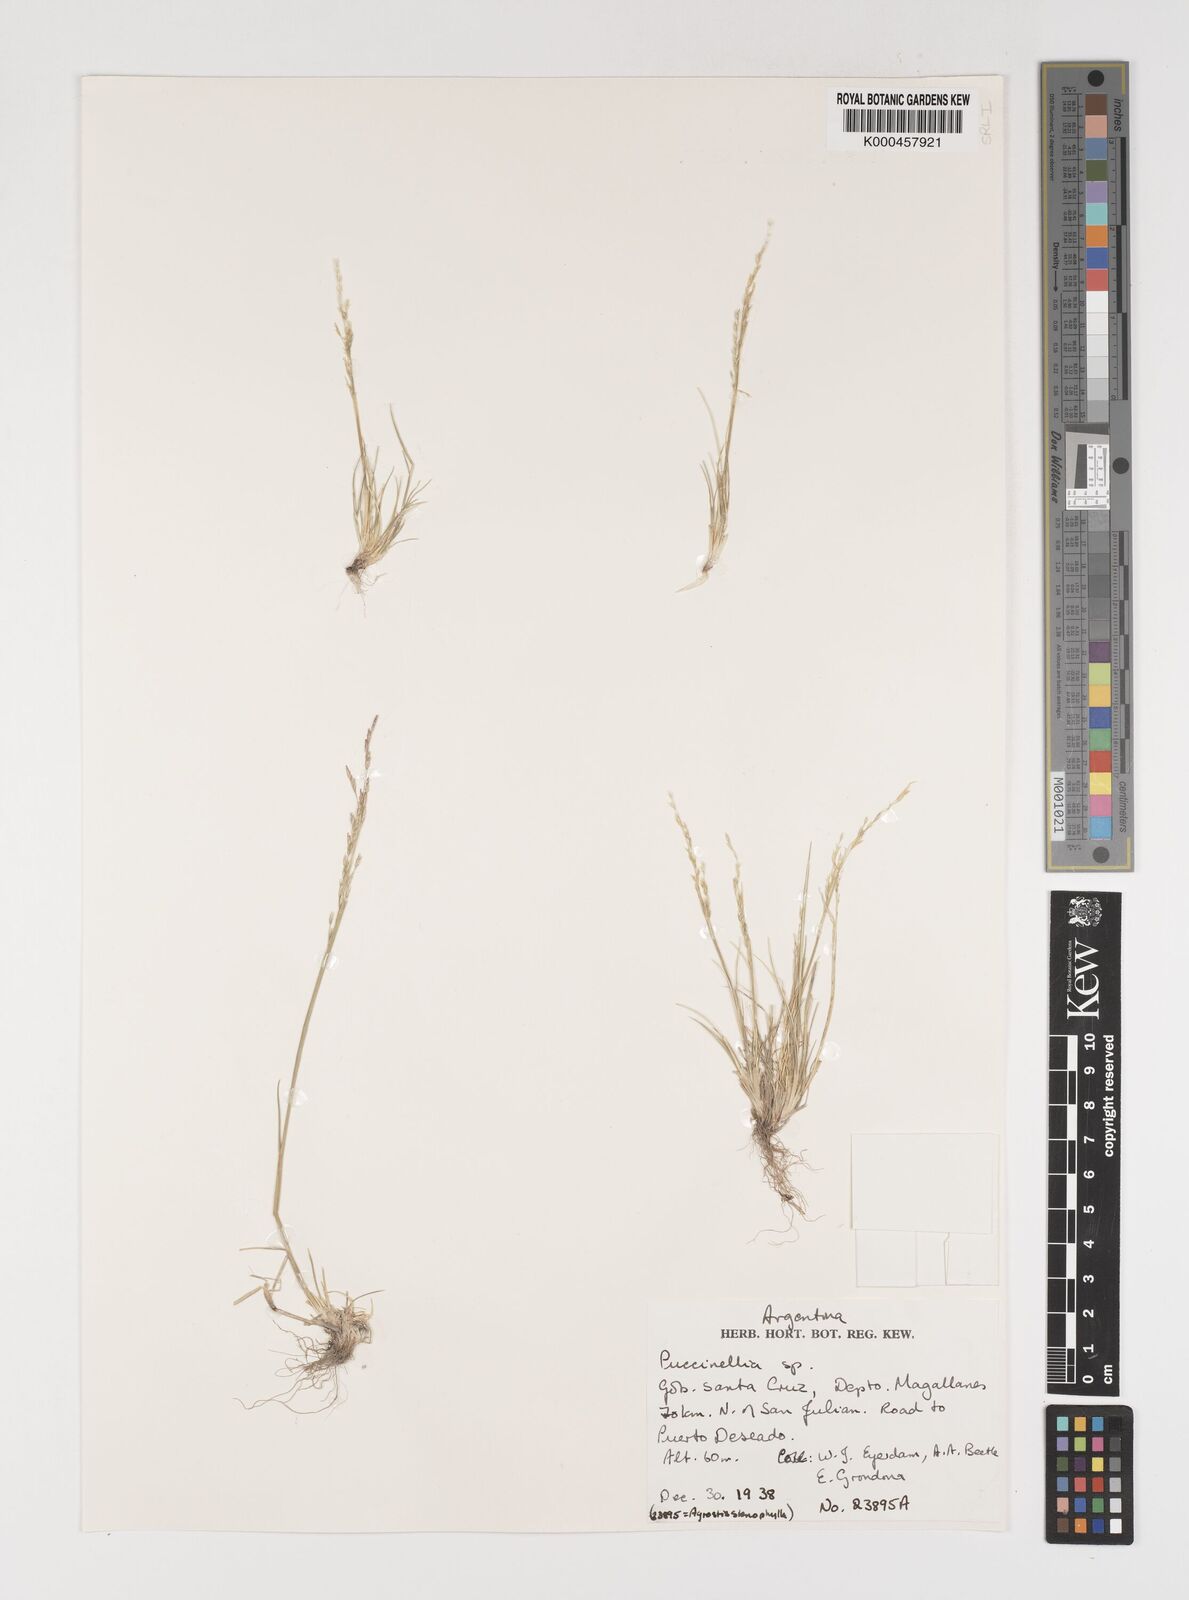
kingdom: Plantae
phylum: Tracheophyta
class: Liliopsida
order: Poales
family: Poaceae
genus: Puccinellia
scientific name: Puccinellia pusilla
